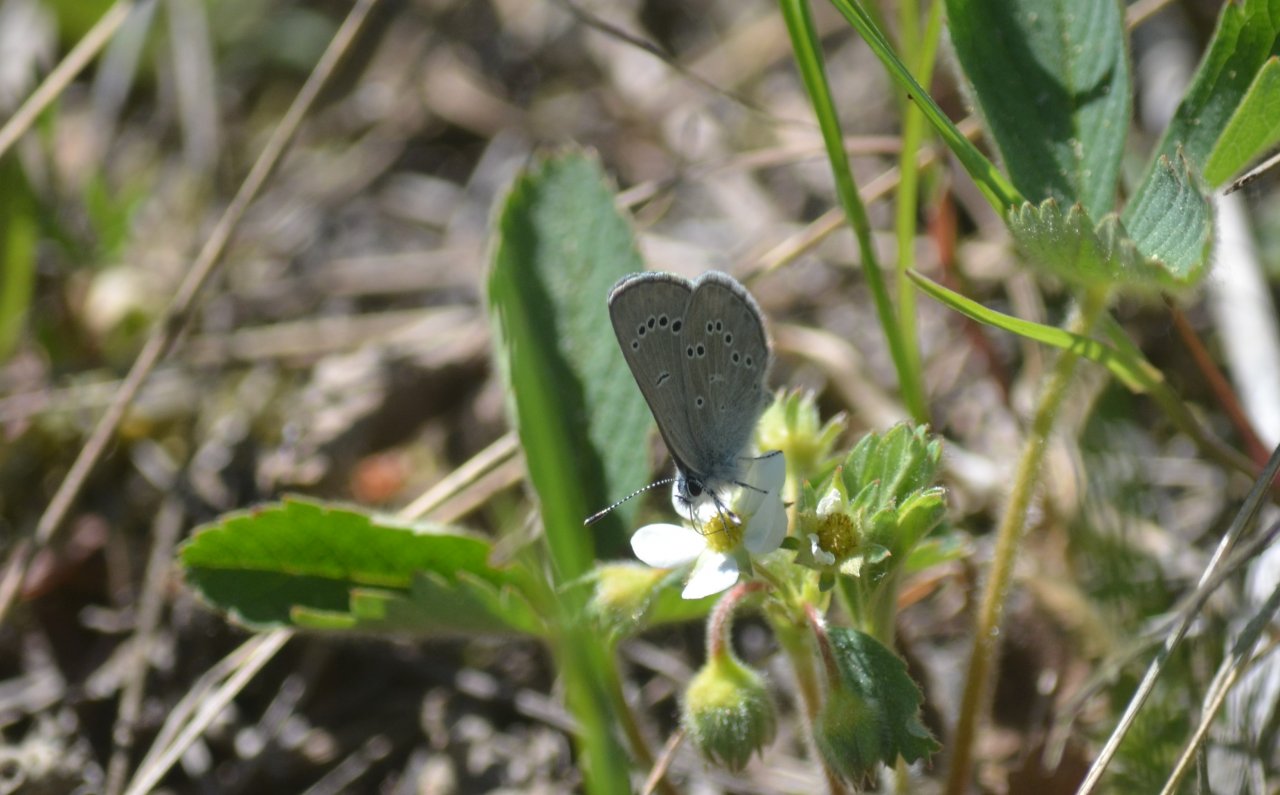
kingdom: Animalia
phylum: Arthropoda
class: Insecta
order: Lepidoptera
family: Lycaenidae
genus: Glaucopsyche
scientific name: Glaucopsyche lygdamus
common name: Silvery Blue
